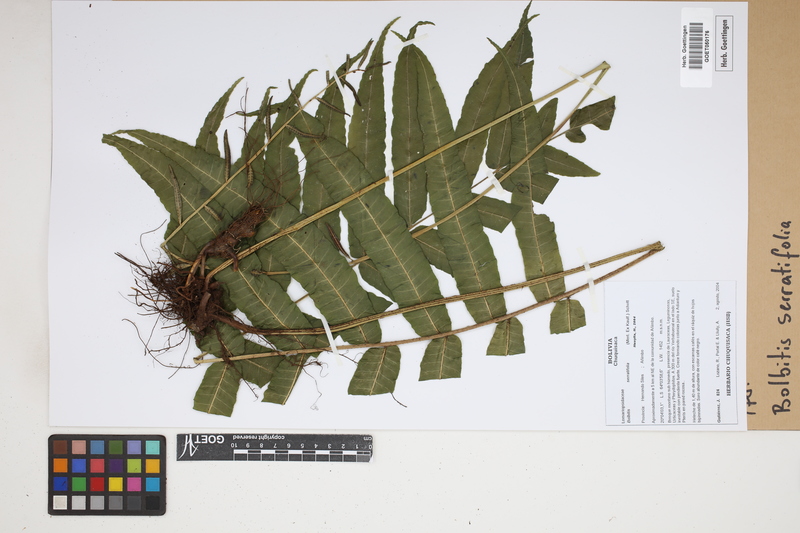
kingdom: Plantae
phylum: Tracheophyta
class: Polypodiopsida
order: Polypodiales
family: Dryopteridaceae
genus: Bolbitis
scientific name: Bolbitis serratifolia
